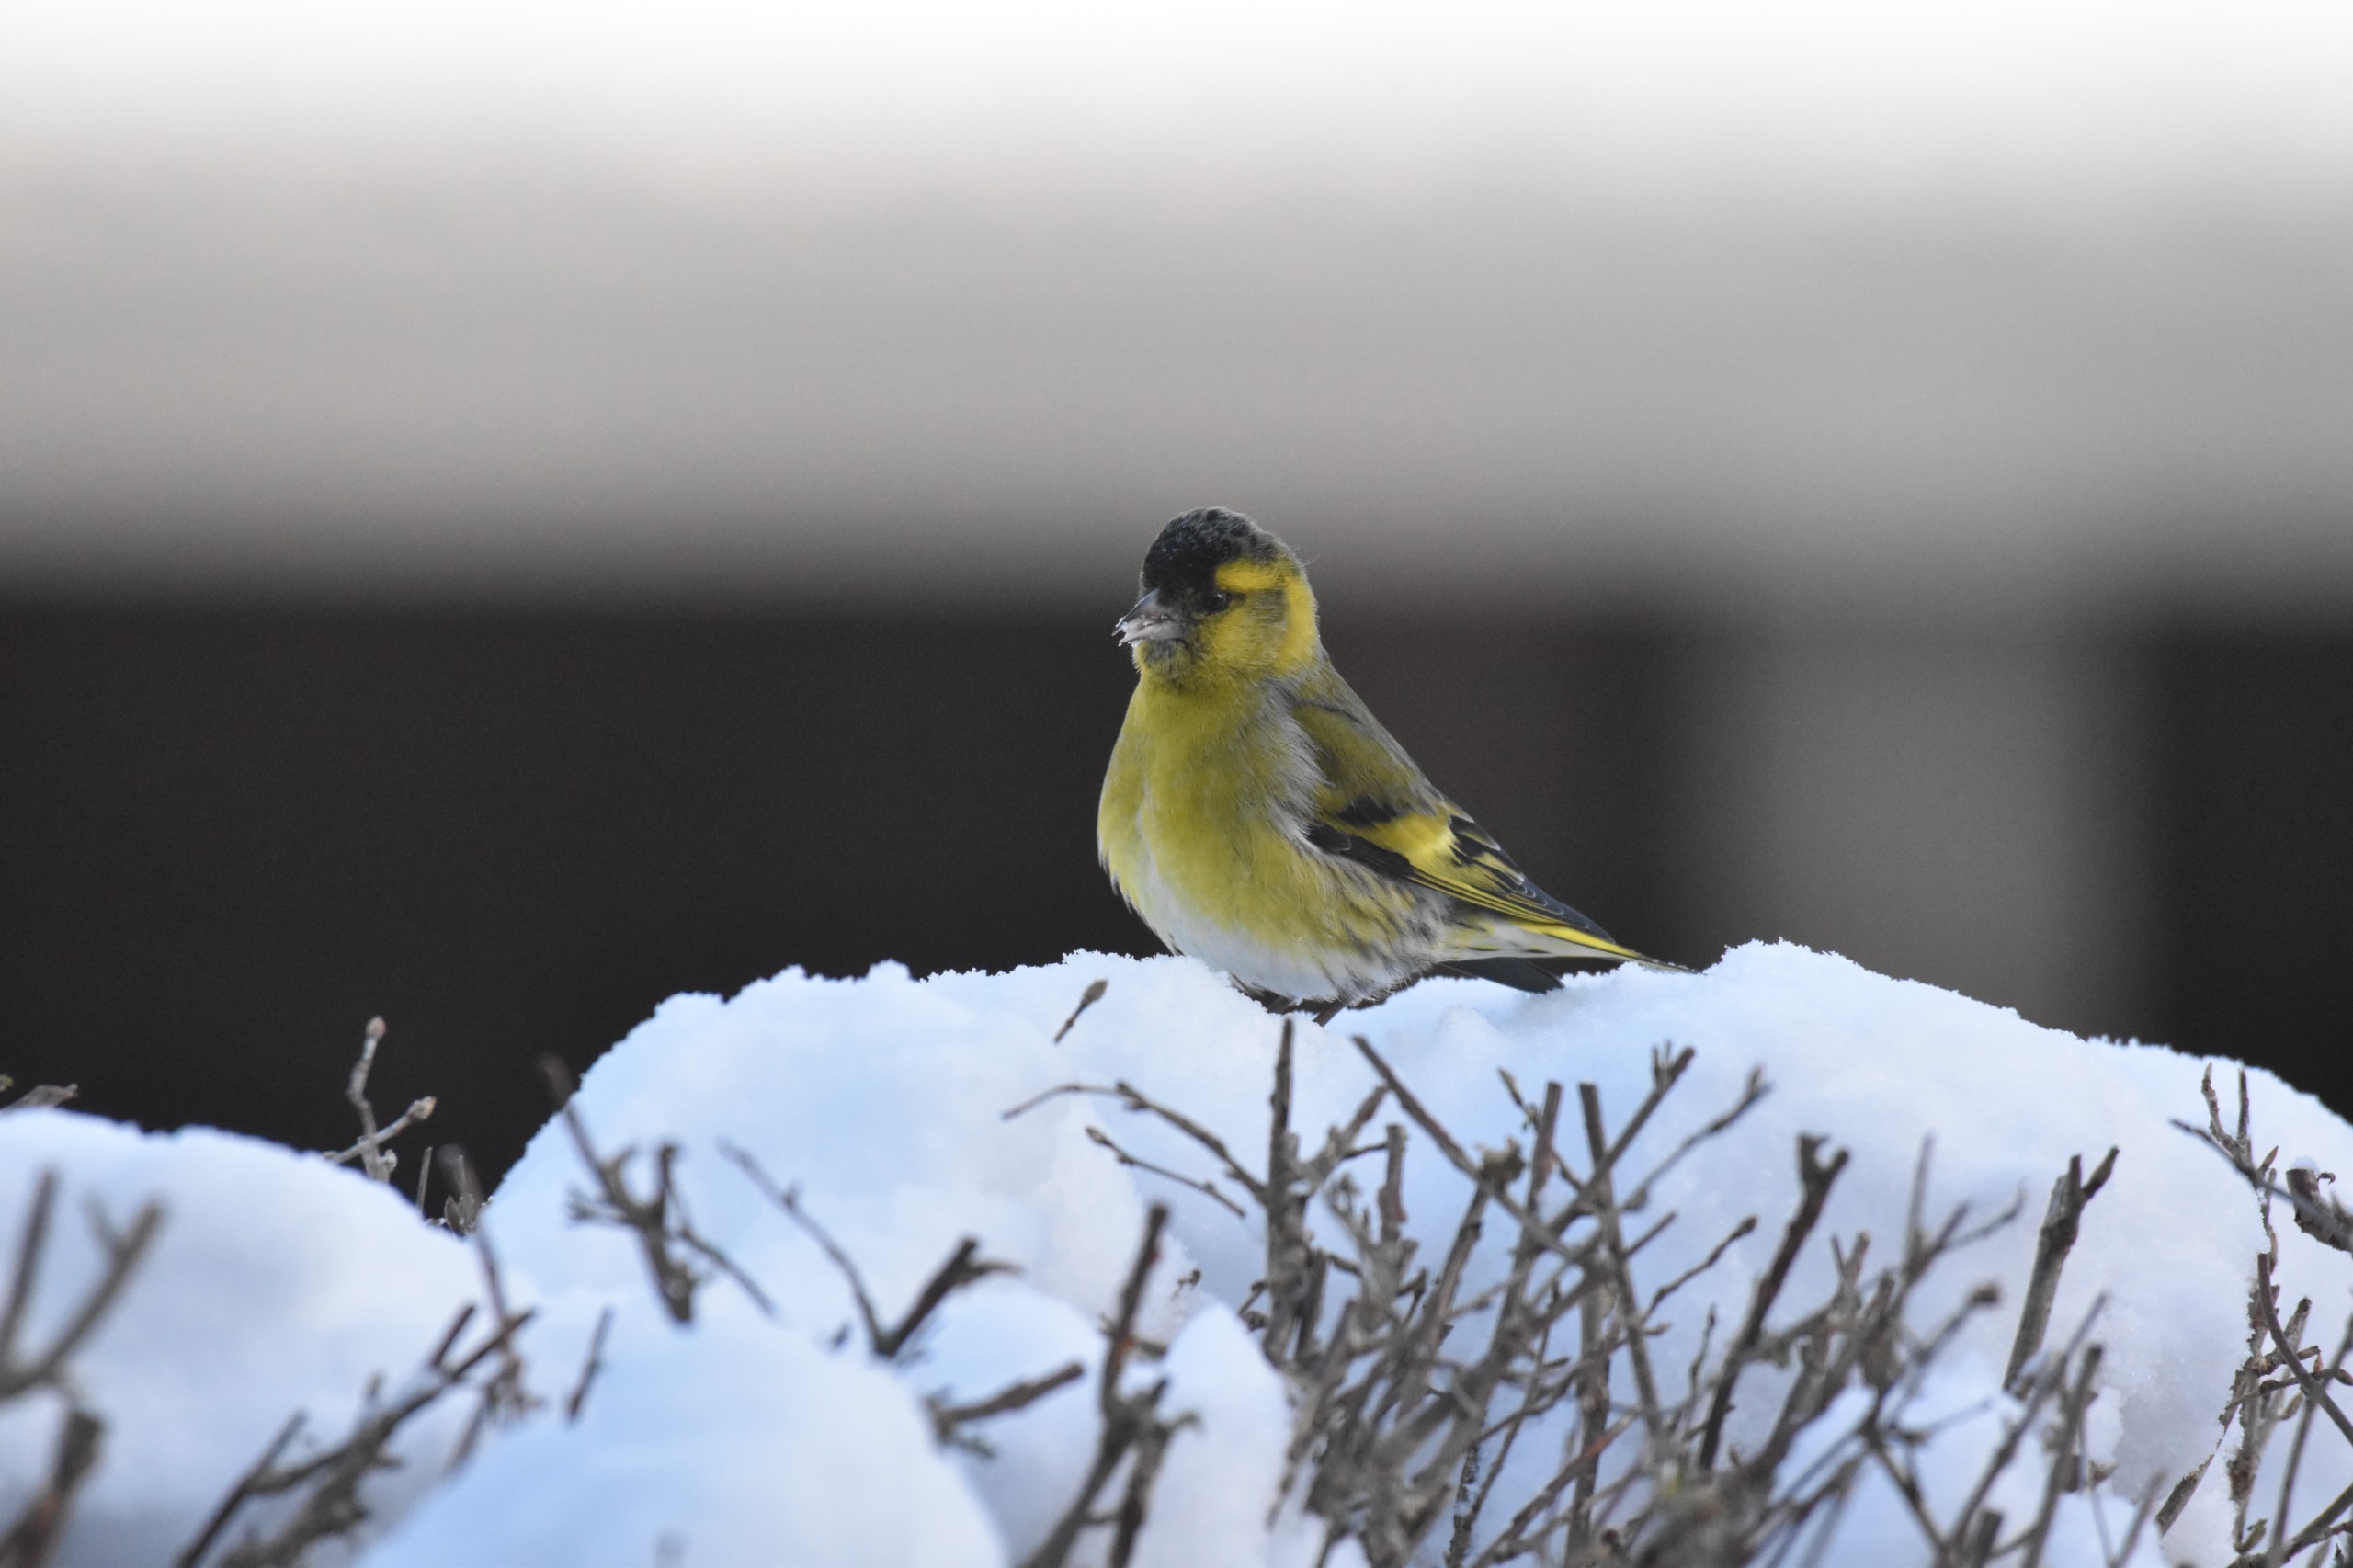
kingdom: Animalia
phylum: Chordata
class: Aves
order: Passeriformes
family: Fringillidae
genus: Spinus
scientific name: Spinus spinus
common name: Grønsisken
